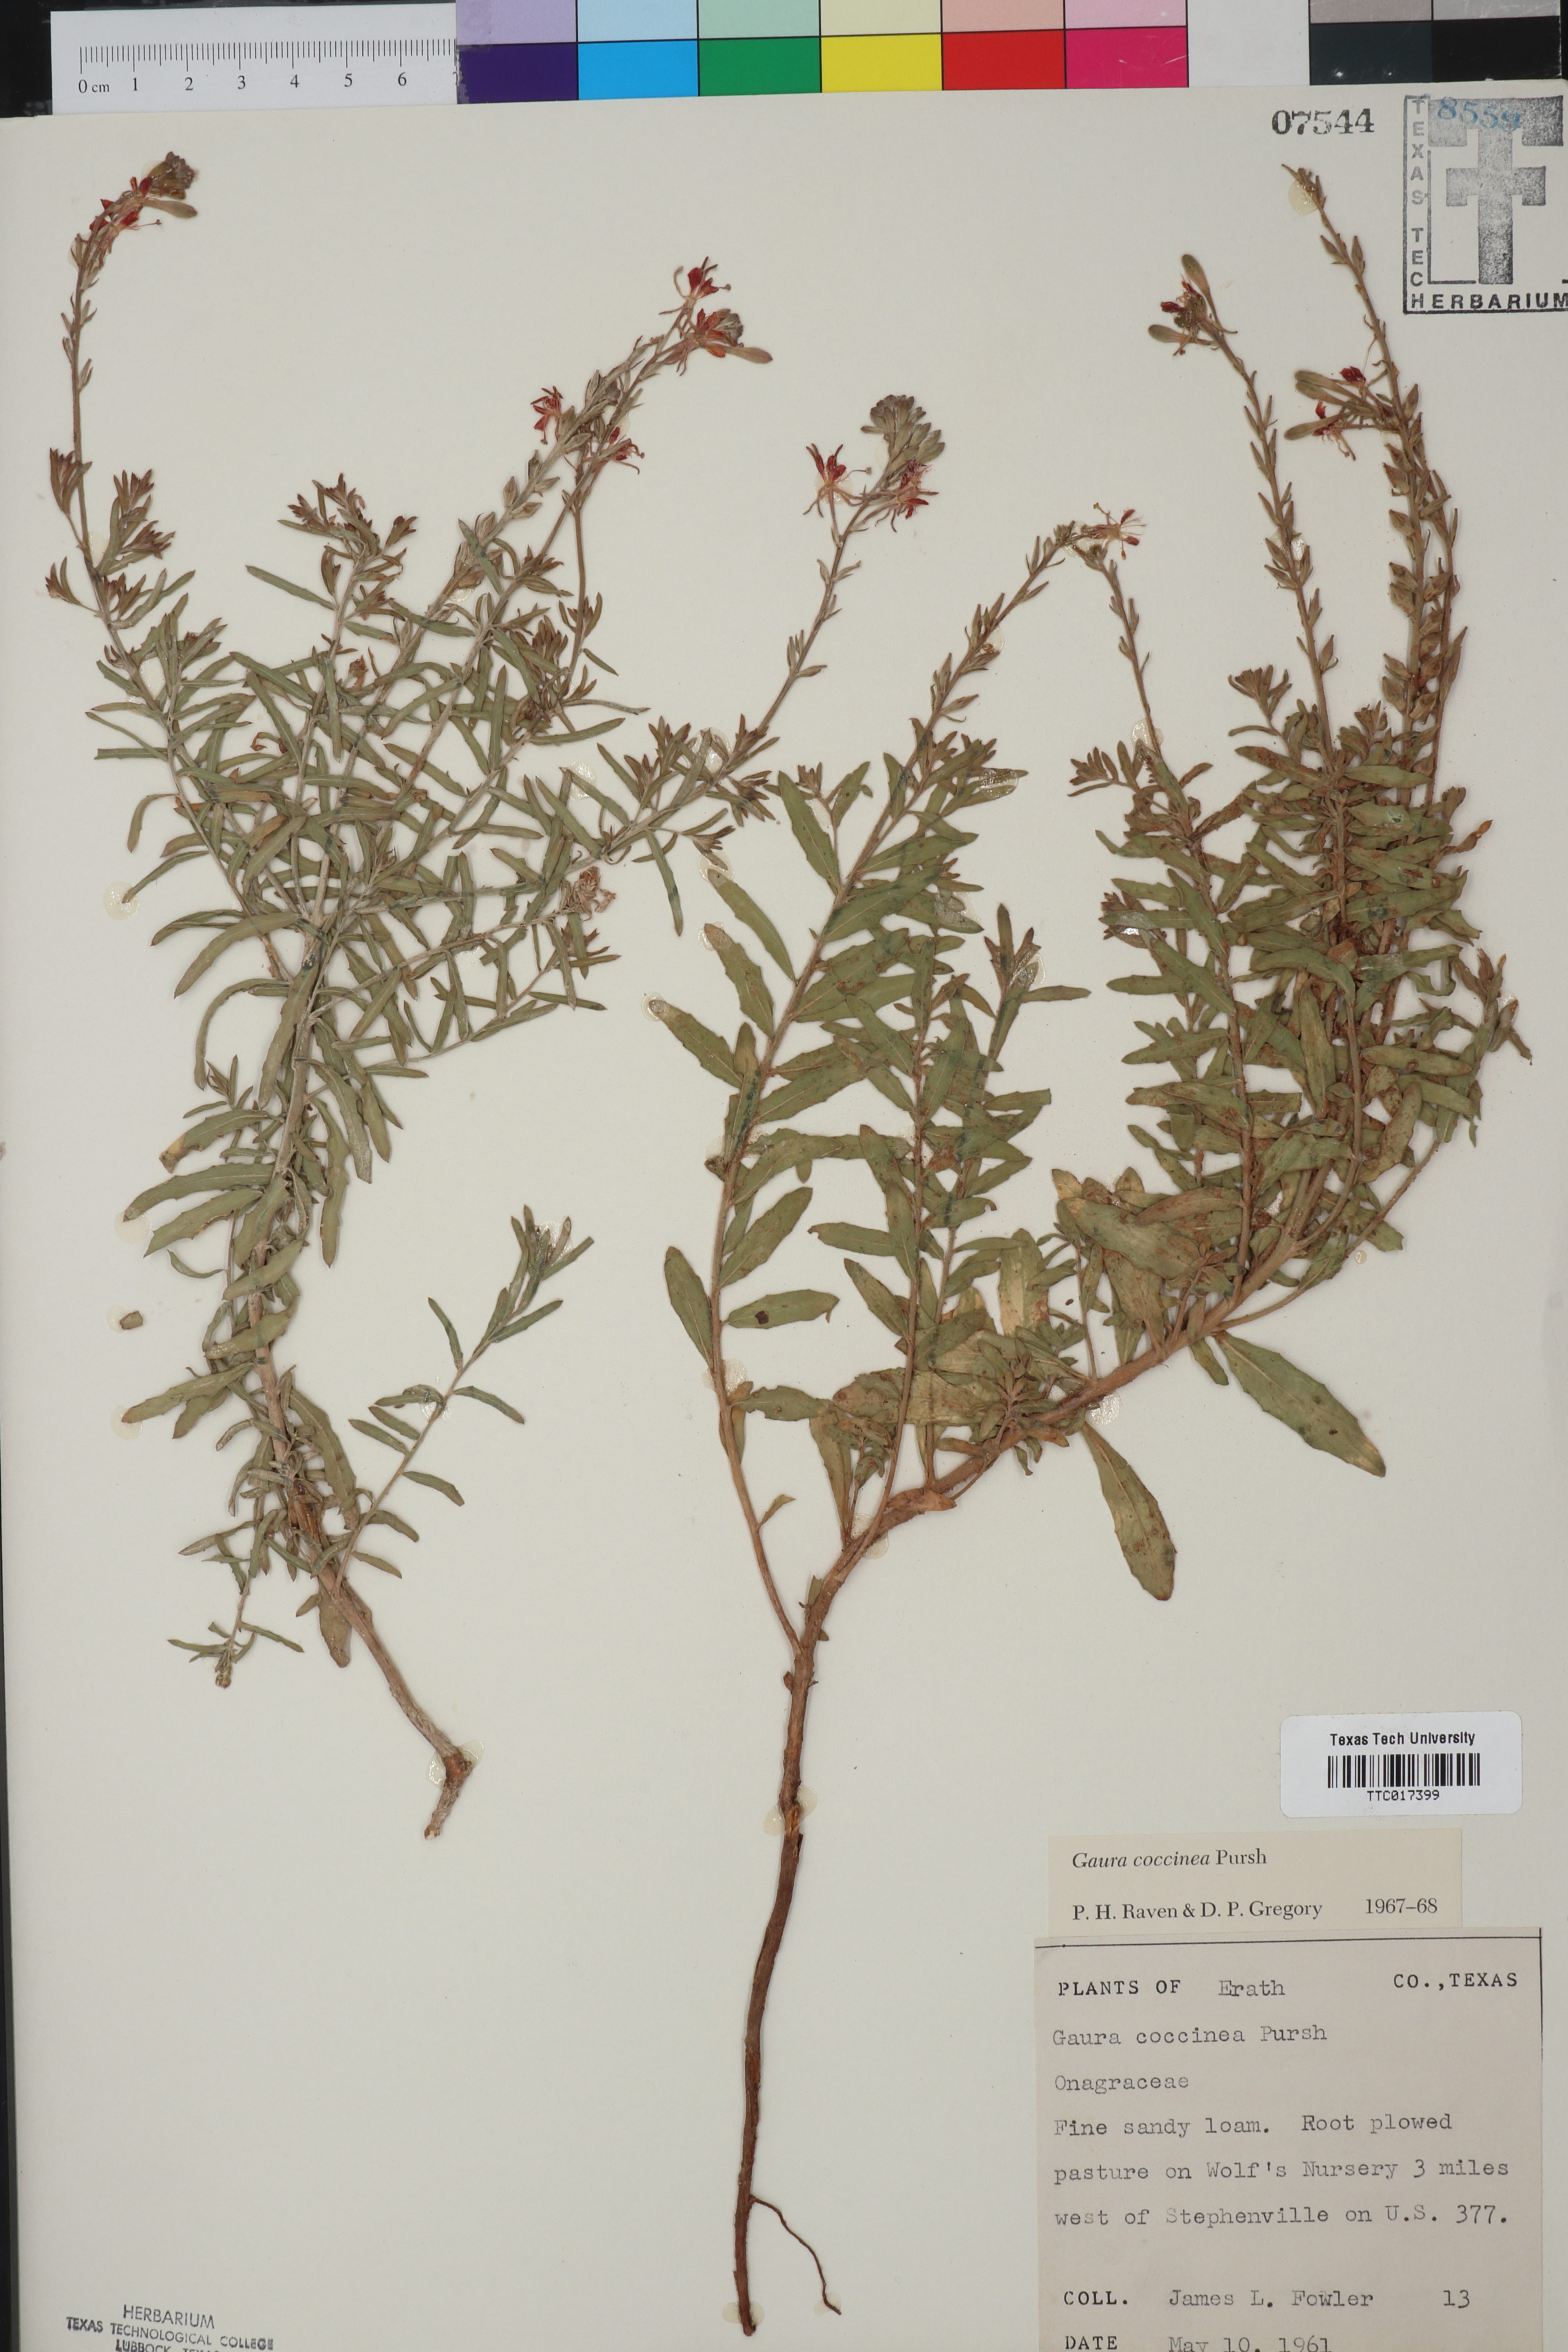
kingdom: Plantae
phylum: Tracheophyta
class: Magnoliopsida
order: Myrtales
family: Onagraceae
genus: Oenothera
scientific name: Oenothera suffrutescens
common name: Scarlet beeblossom
